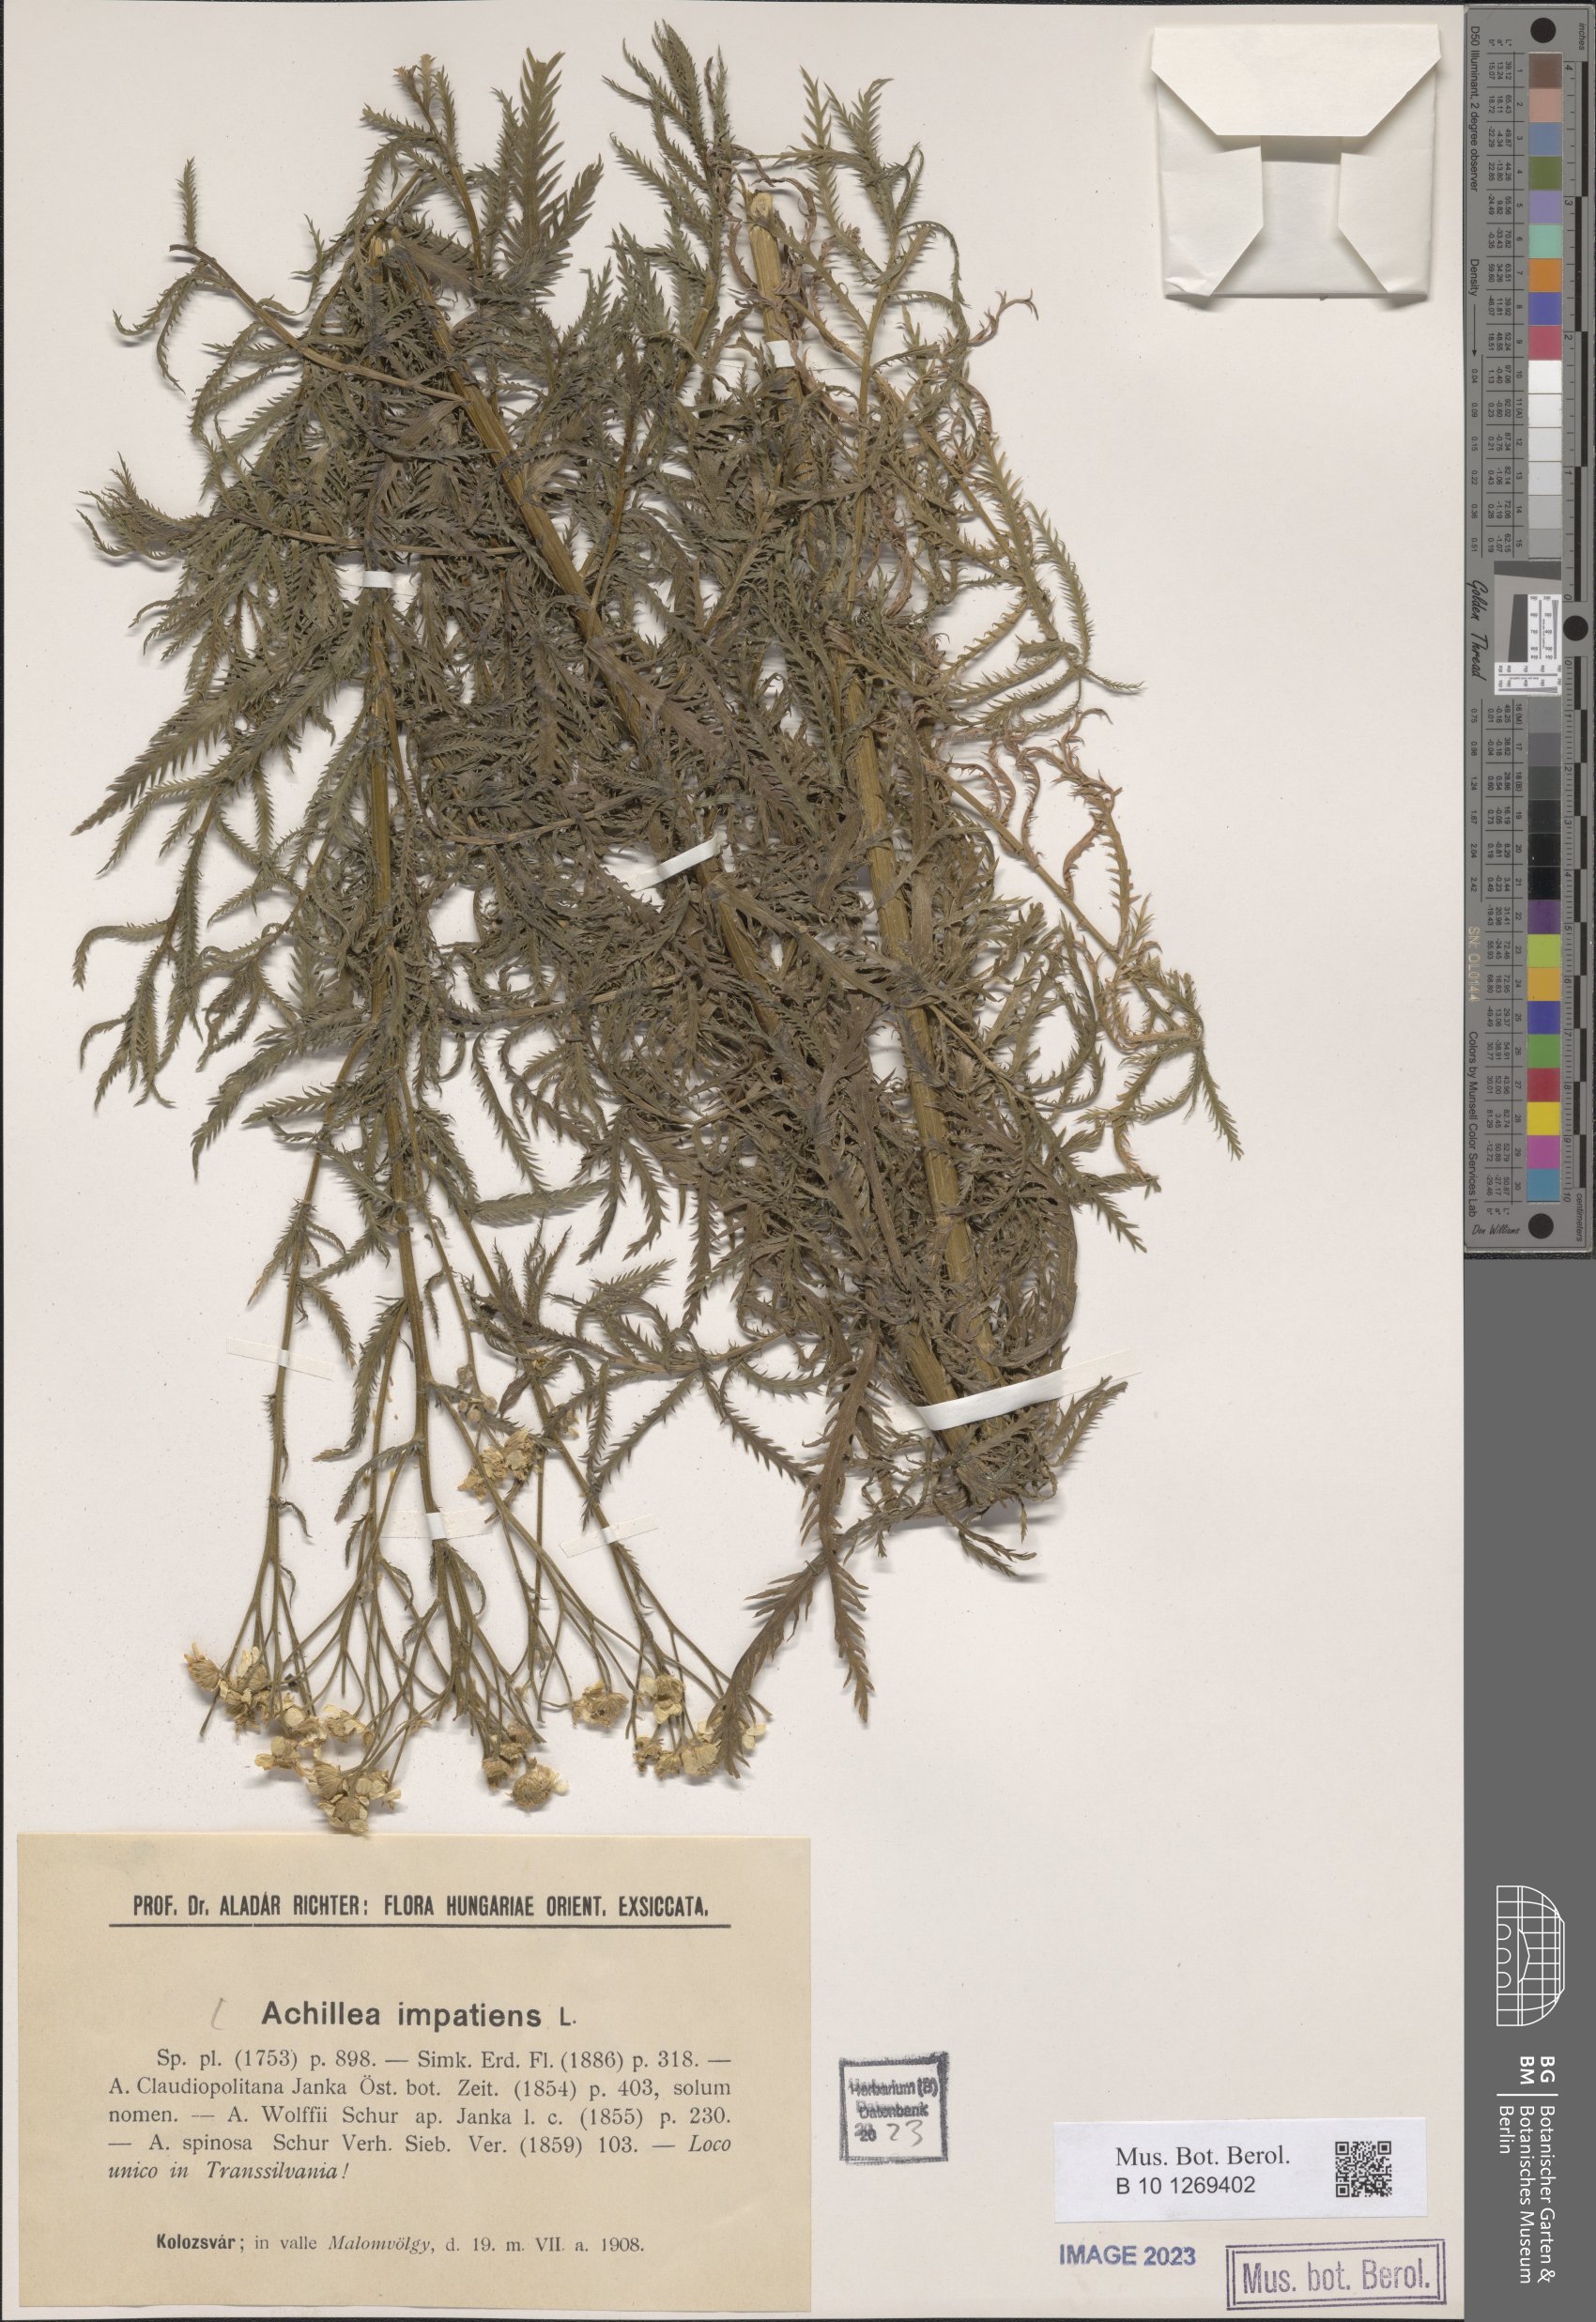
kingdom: Plantae
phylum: Tracheophyta
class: Magnoliopsida
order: Asterales
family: Asteraceae
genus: Achillea
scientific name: Achillea impatiens
